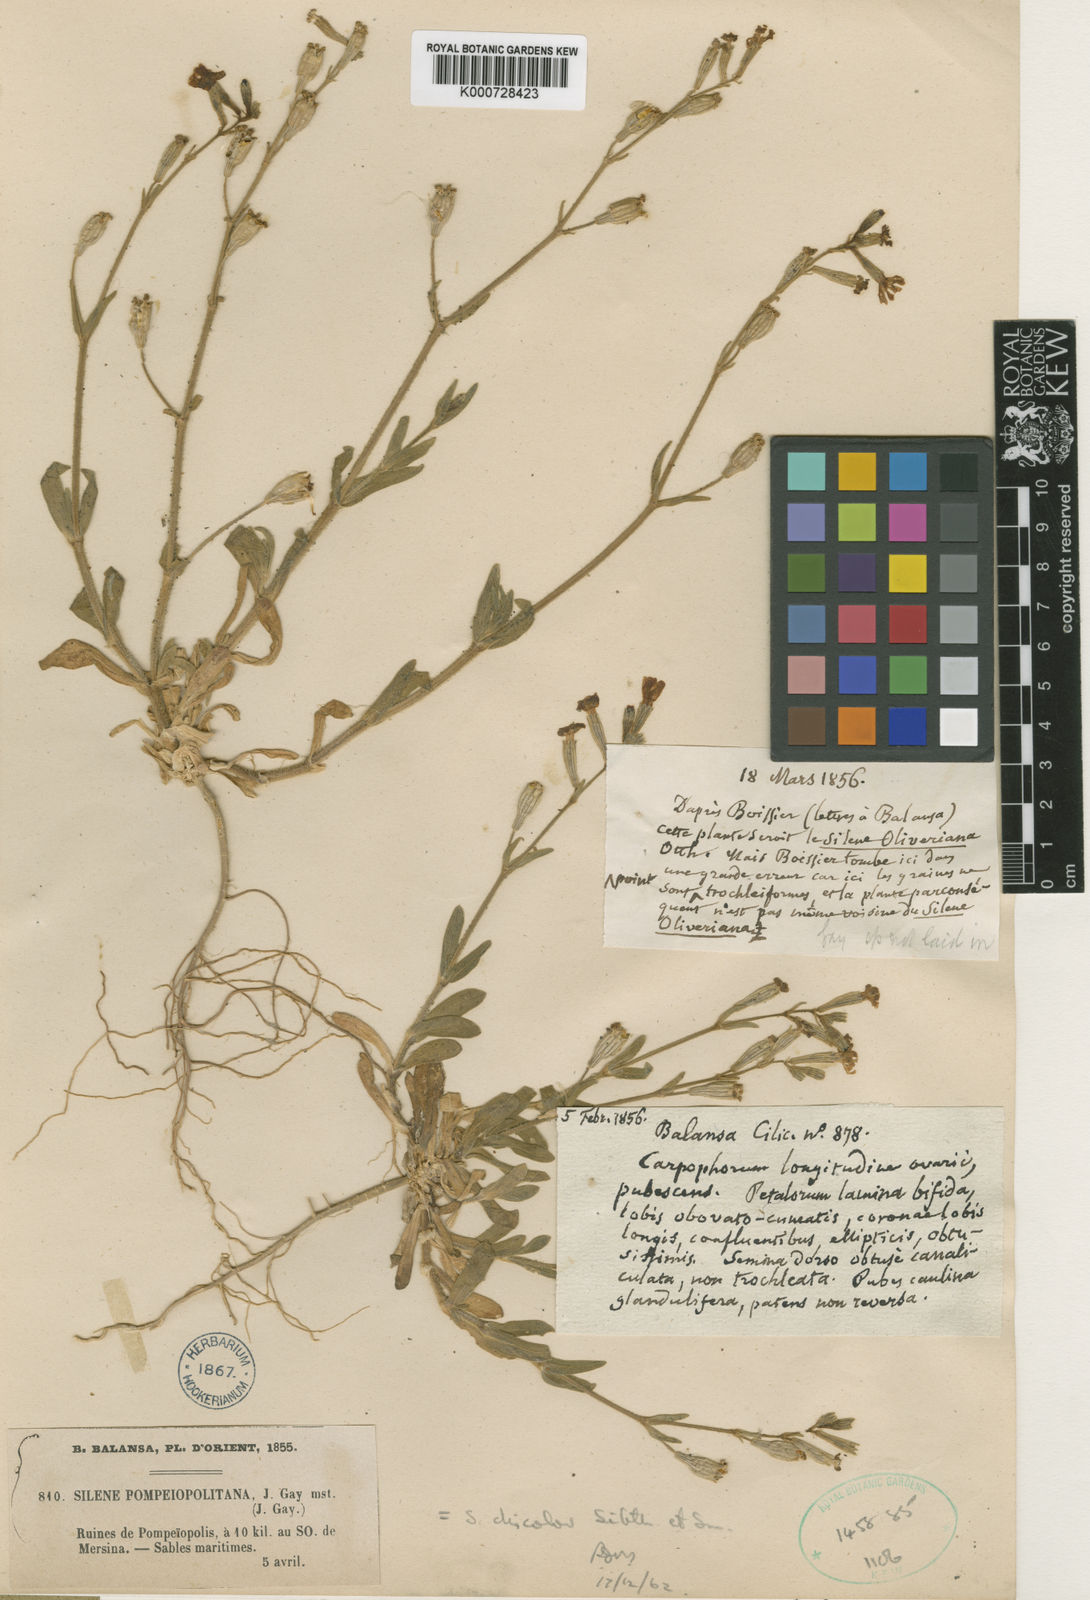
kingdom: Plantae
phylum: Tracheophyta
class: Magnoliopsida
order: Caryophyllales
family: Caryophyllaceae
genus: Silene
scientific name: Silene discolor
